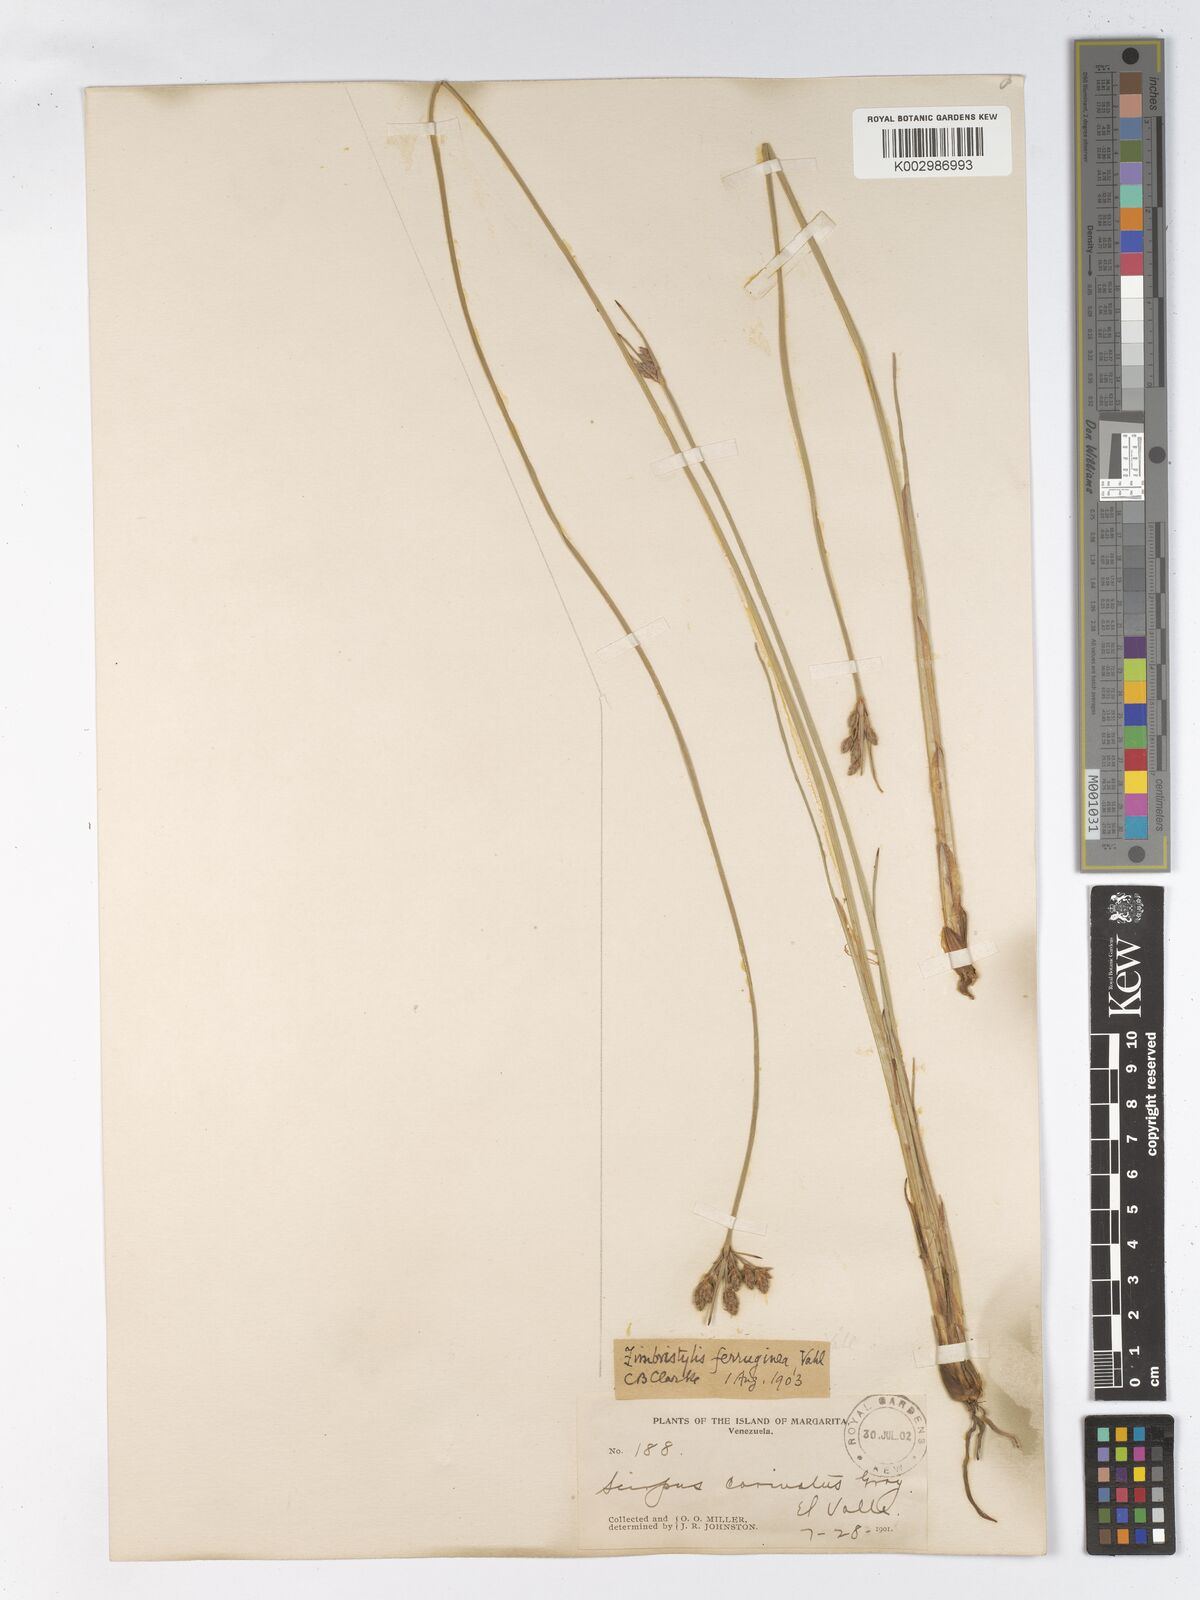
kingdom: Plantae
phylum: Tracheophyta
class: Liliopsida
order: Poales
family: Cyperaceae
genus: Fimbristylis
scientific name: Fimbristylis ferruginea
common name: West indian fimbry
